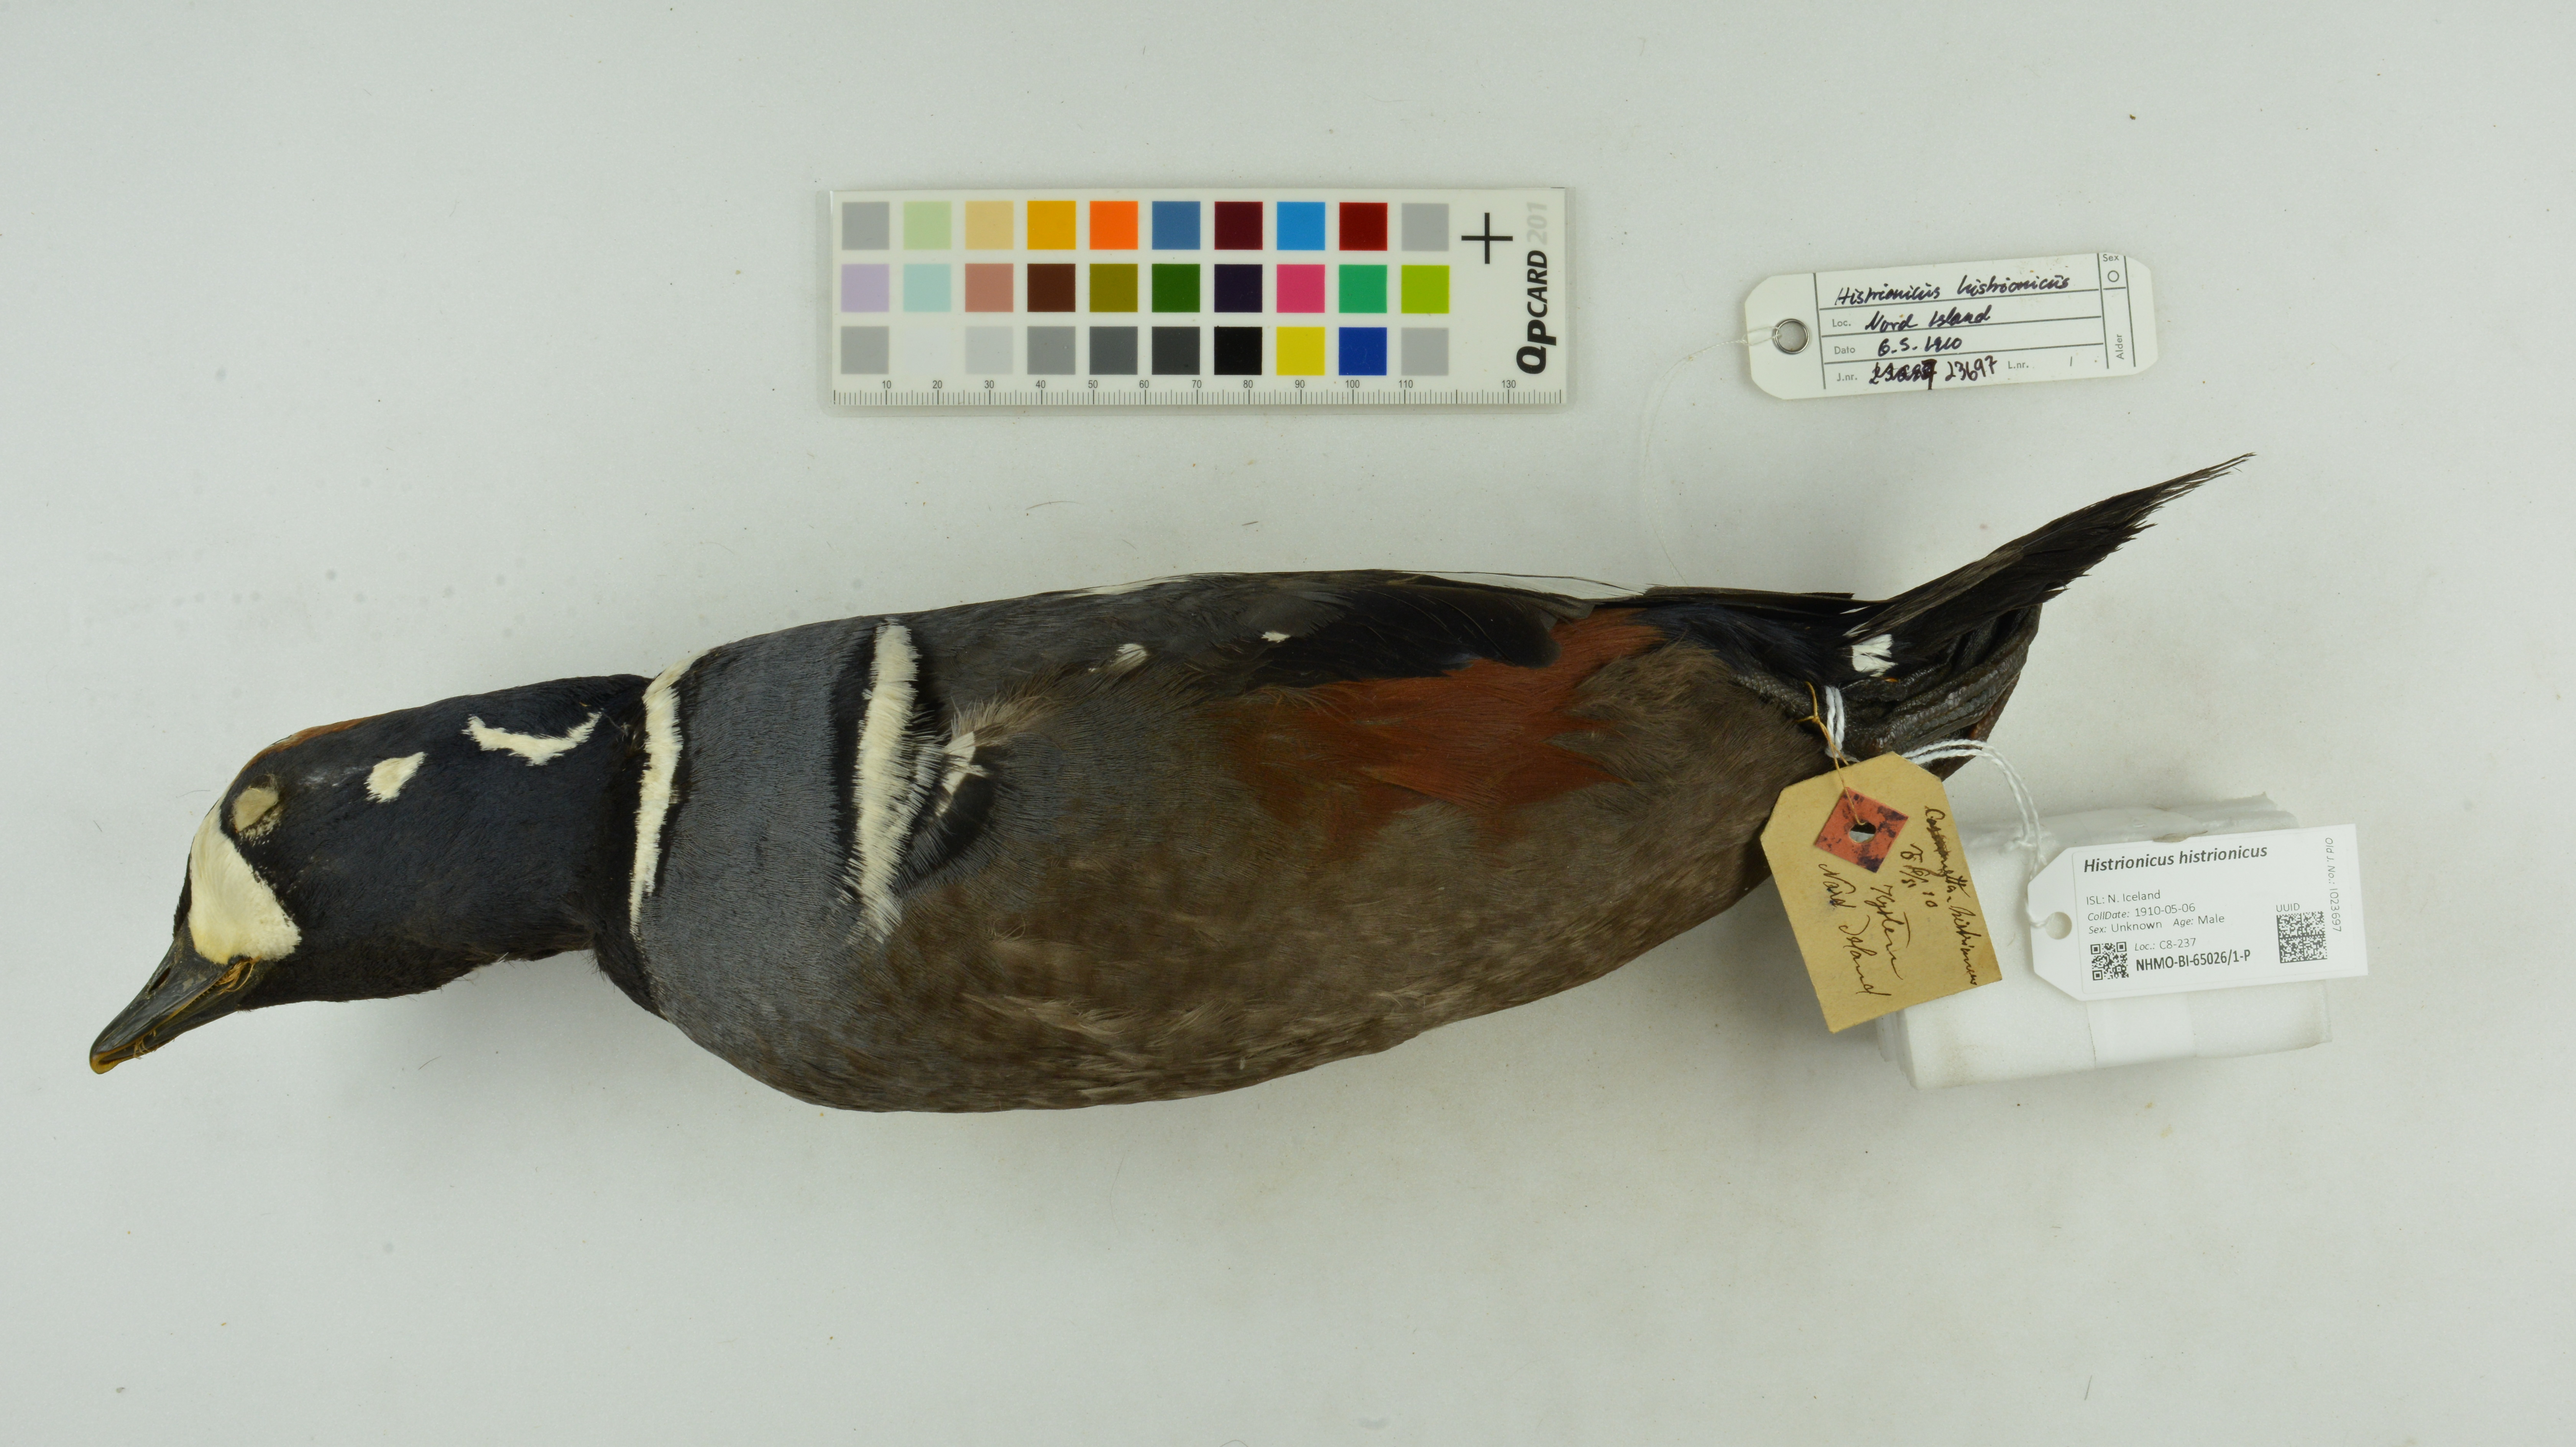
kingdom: Animalia
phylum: Chordata
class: Aves
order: Anseriformes
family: Anatidae
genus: Histrionicus
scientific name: Histrionicus histrionicus
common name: Harlequin duck
